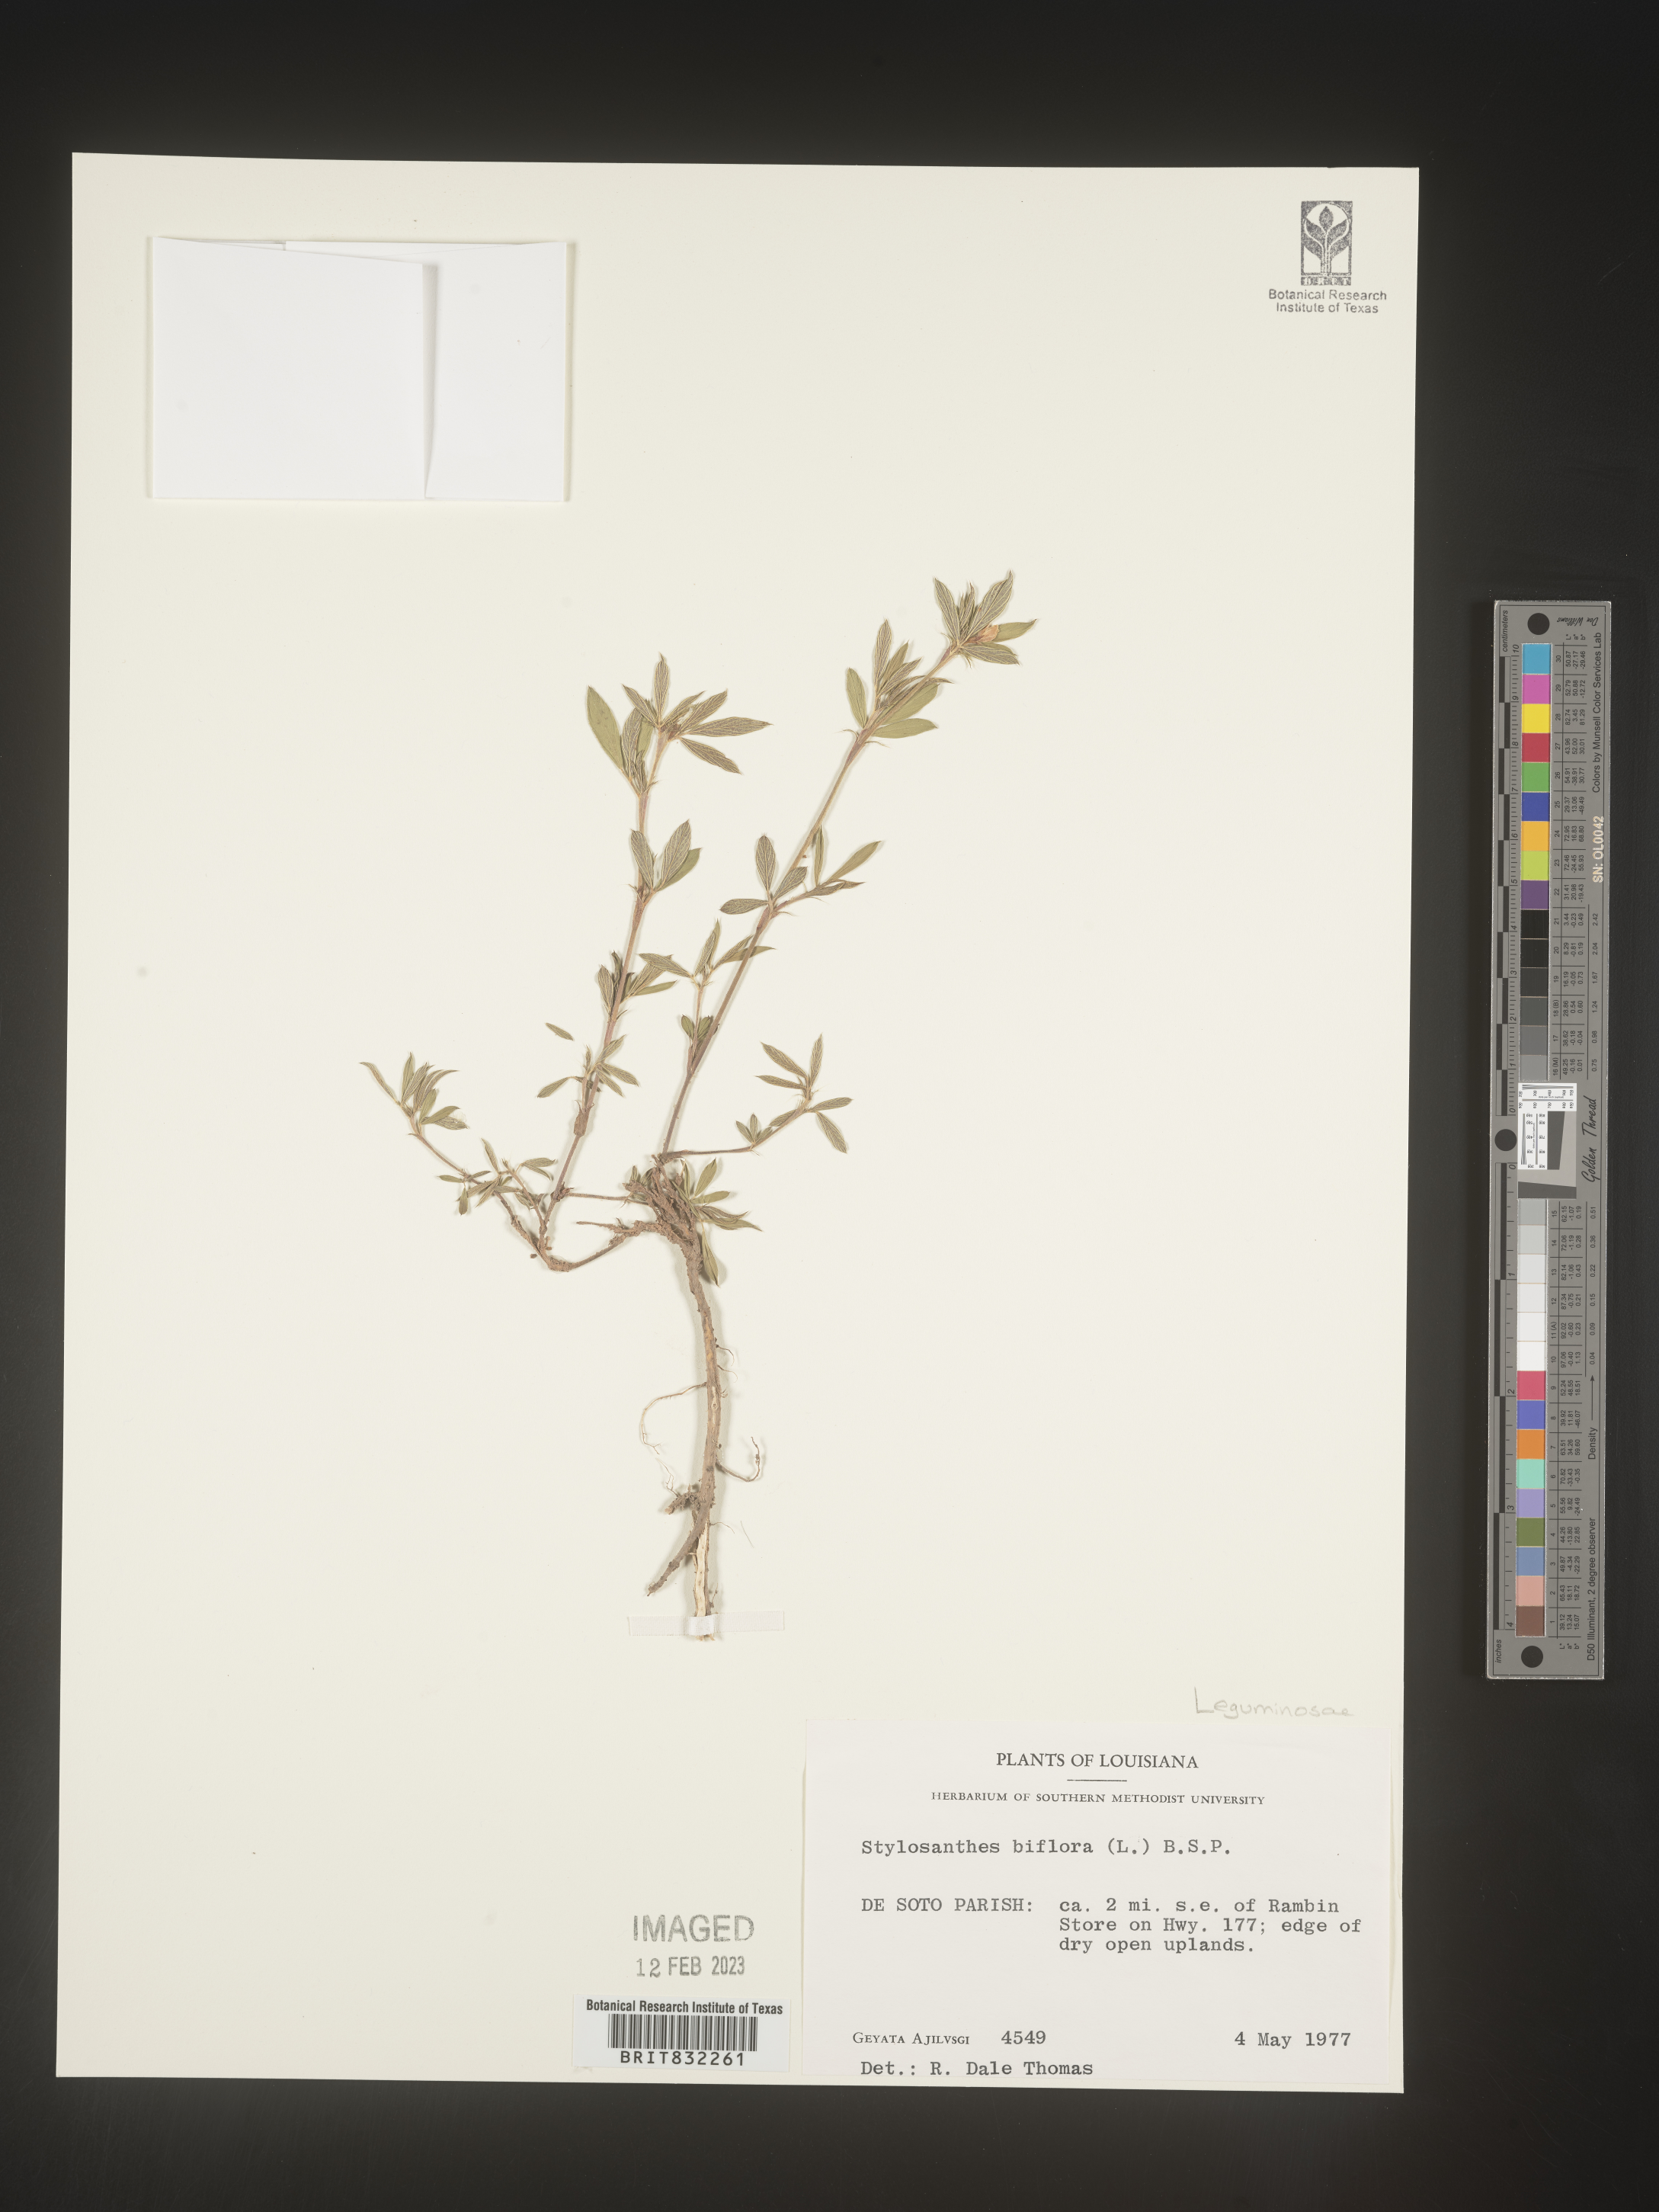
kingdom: Plantae
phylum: Tracheophyta
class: Magnoliopsida
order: Fabales
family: Fabaceae
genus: Stylosanthes
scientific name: Stylosanthes biflora
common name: Two-flower pencil-flower
